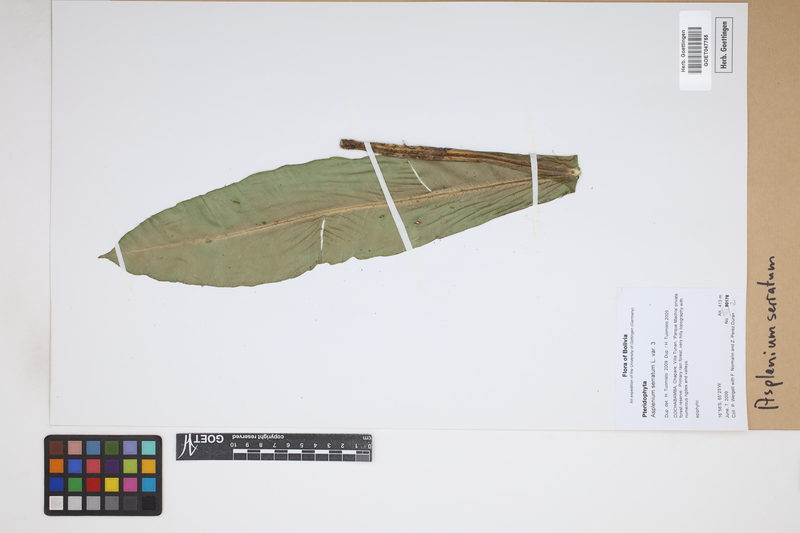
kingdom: Plantae
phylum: Tracheophyta
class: Polypodiopsida
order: Polypodiales
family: Aspleniaceae
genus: Asplenium
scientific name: Asplenium serratum
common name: Wild birdnest fern
